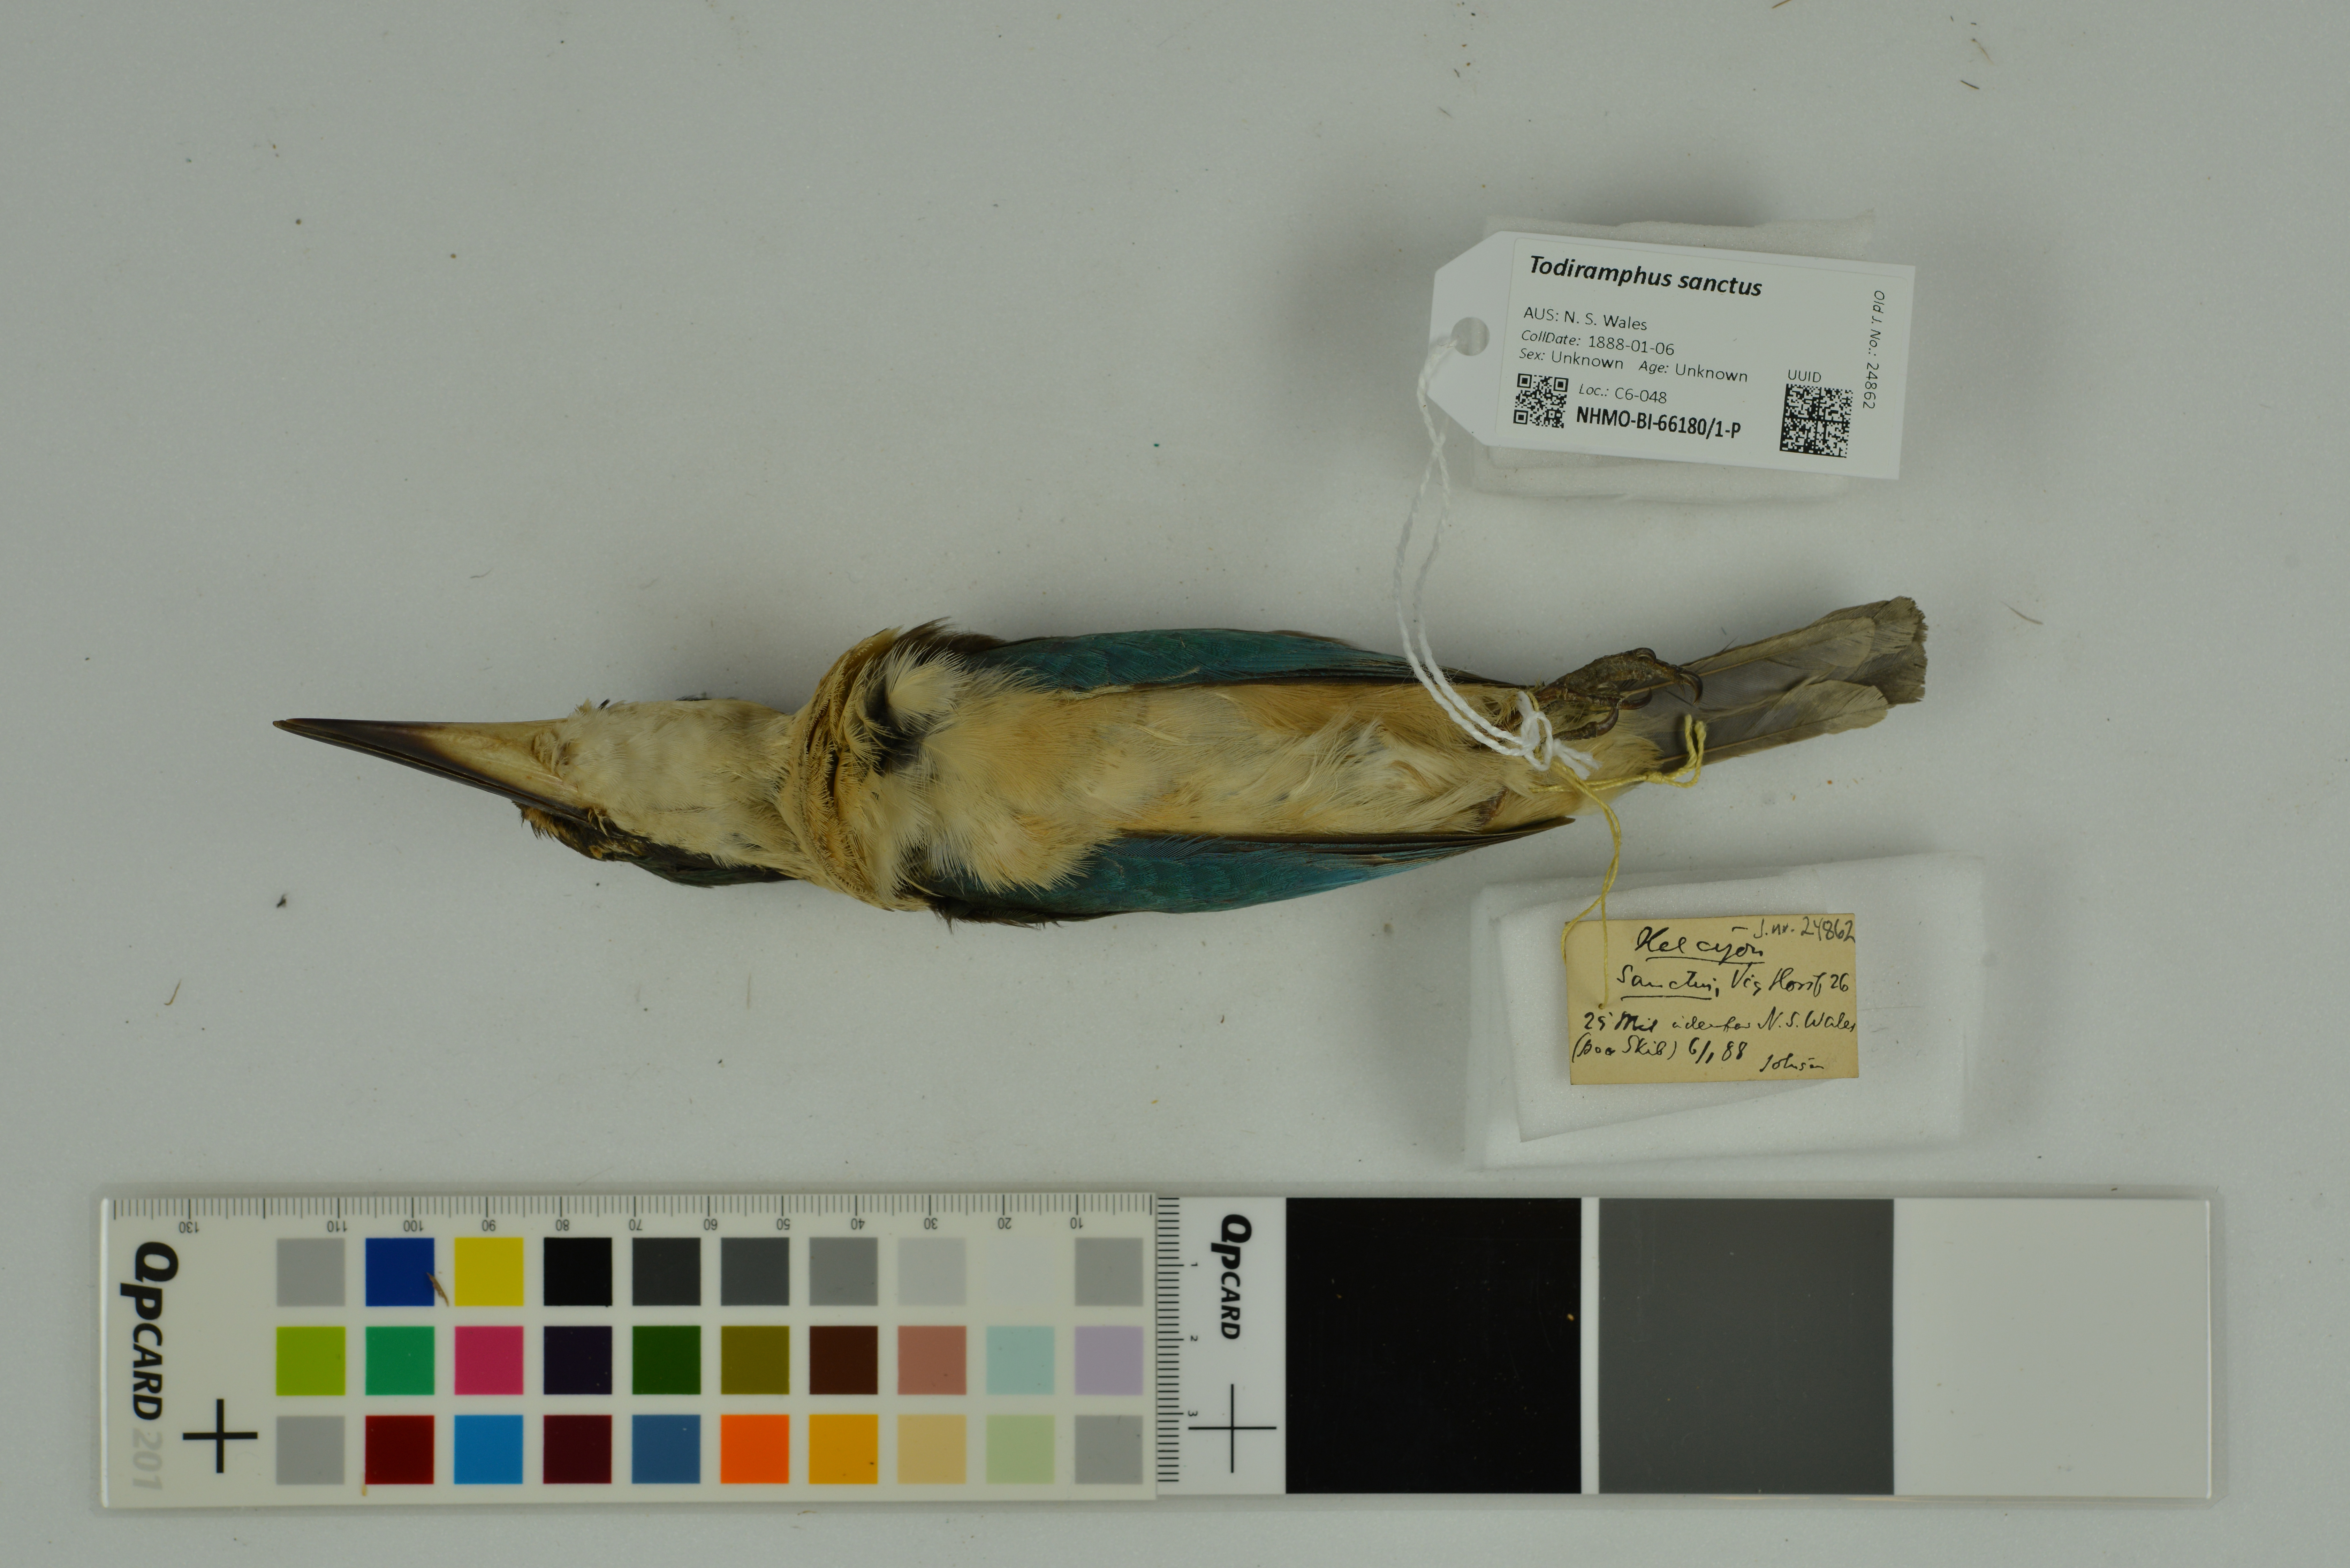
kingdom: Animalia
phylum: Chordata
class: Aves
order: Coraciiformes
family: Alcedinidae
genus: Todiramphus
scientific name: Todiramphus sanctus
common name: Sacred kingfisher
